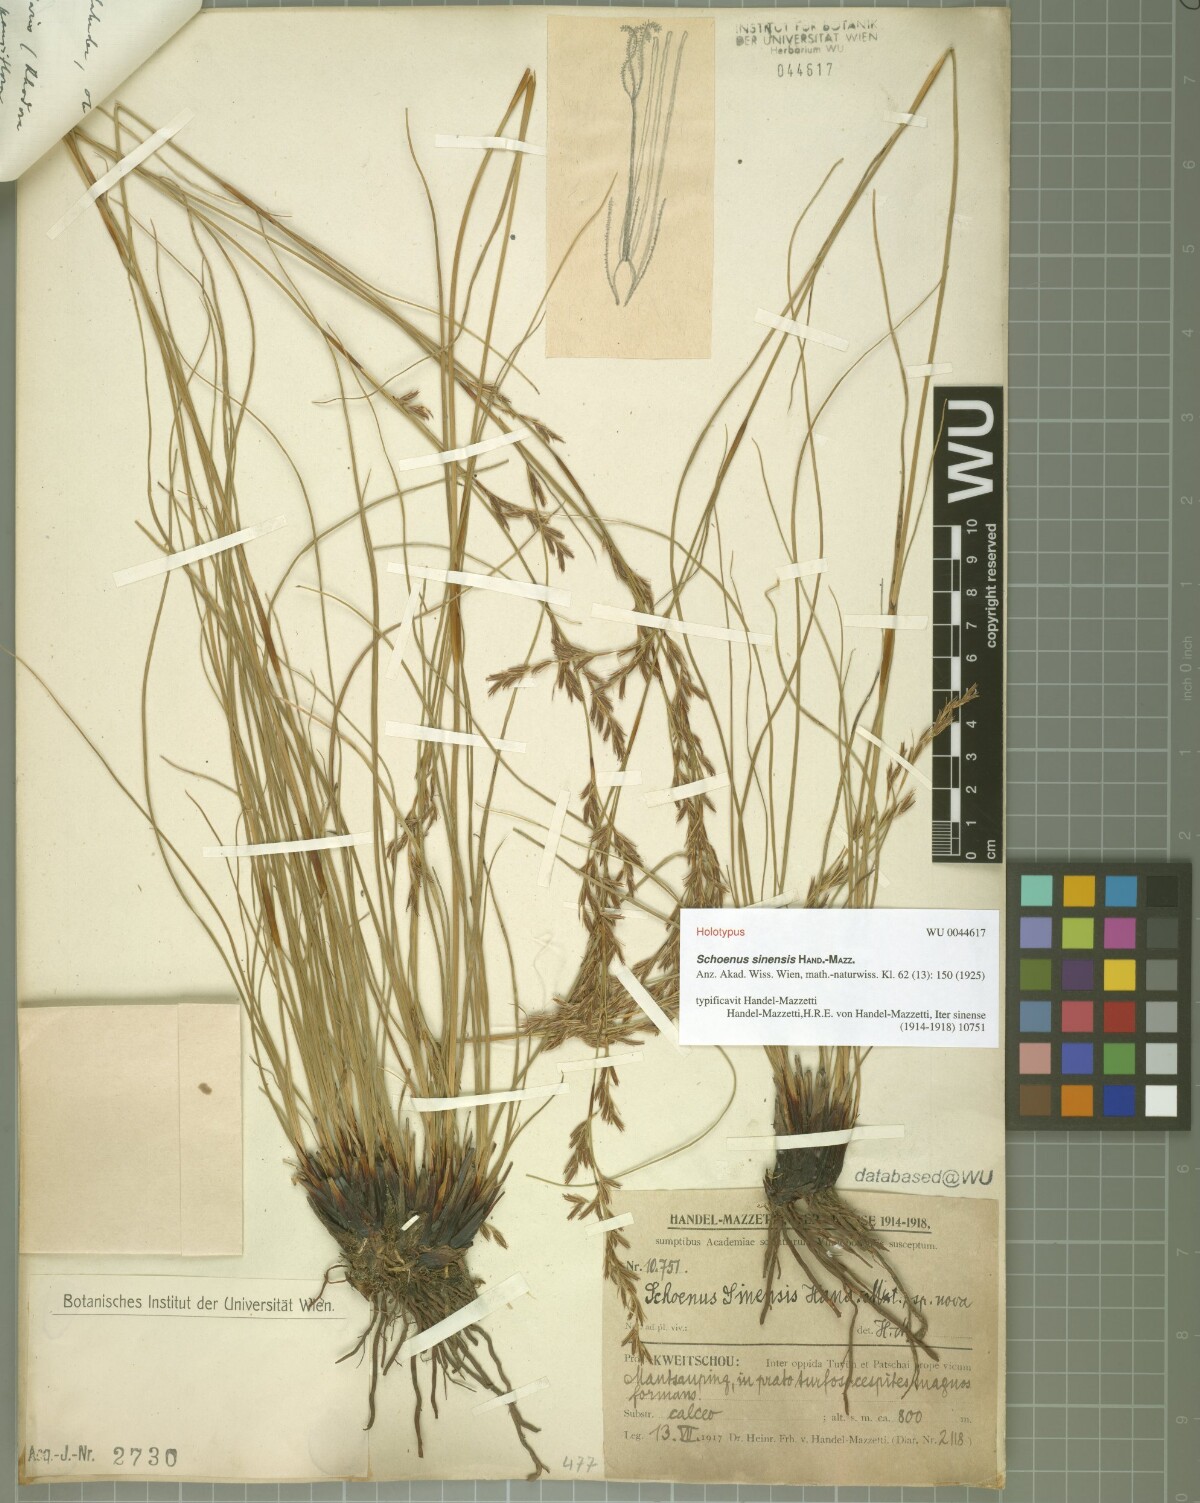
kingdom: Plantae
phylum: Tracheophyta
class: Liliopsida
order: Poales
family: Cyperaceae
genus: Schoenus
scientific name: Schoenus sinensis
